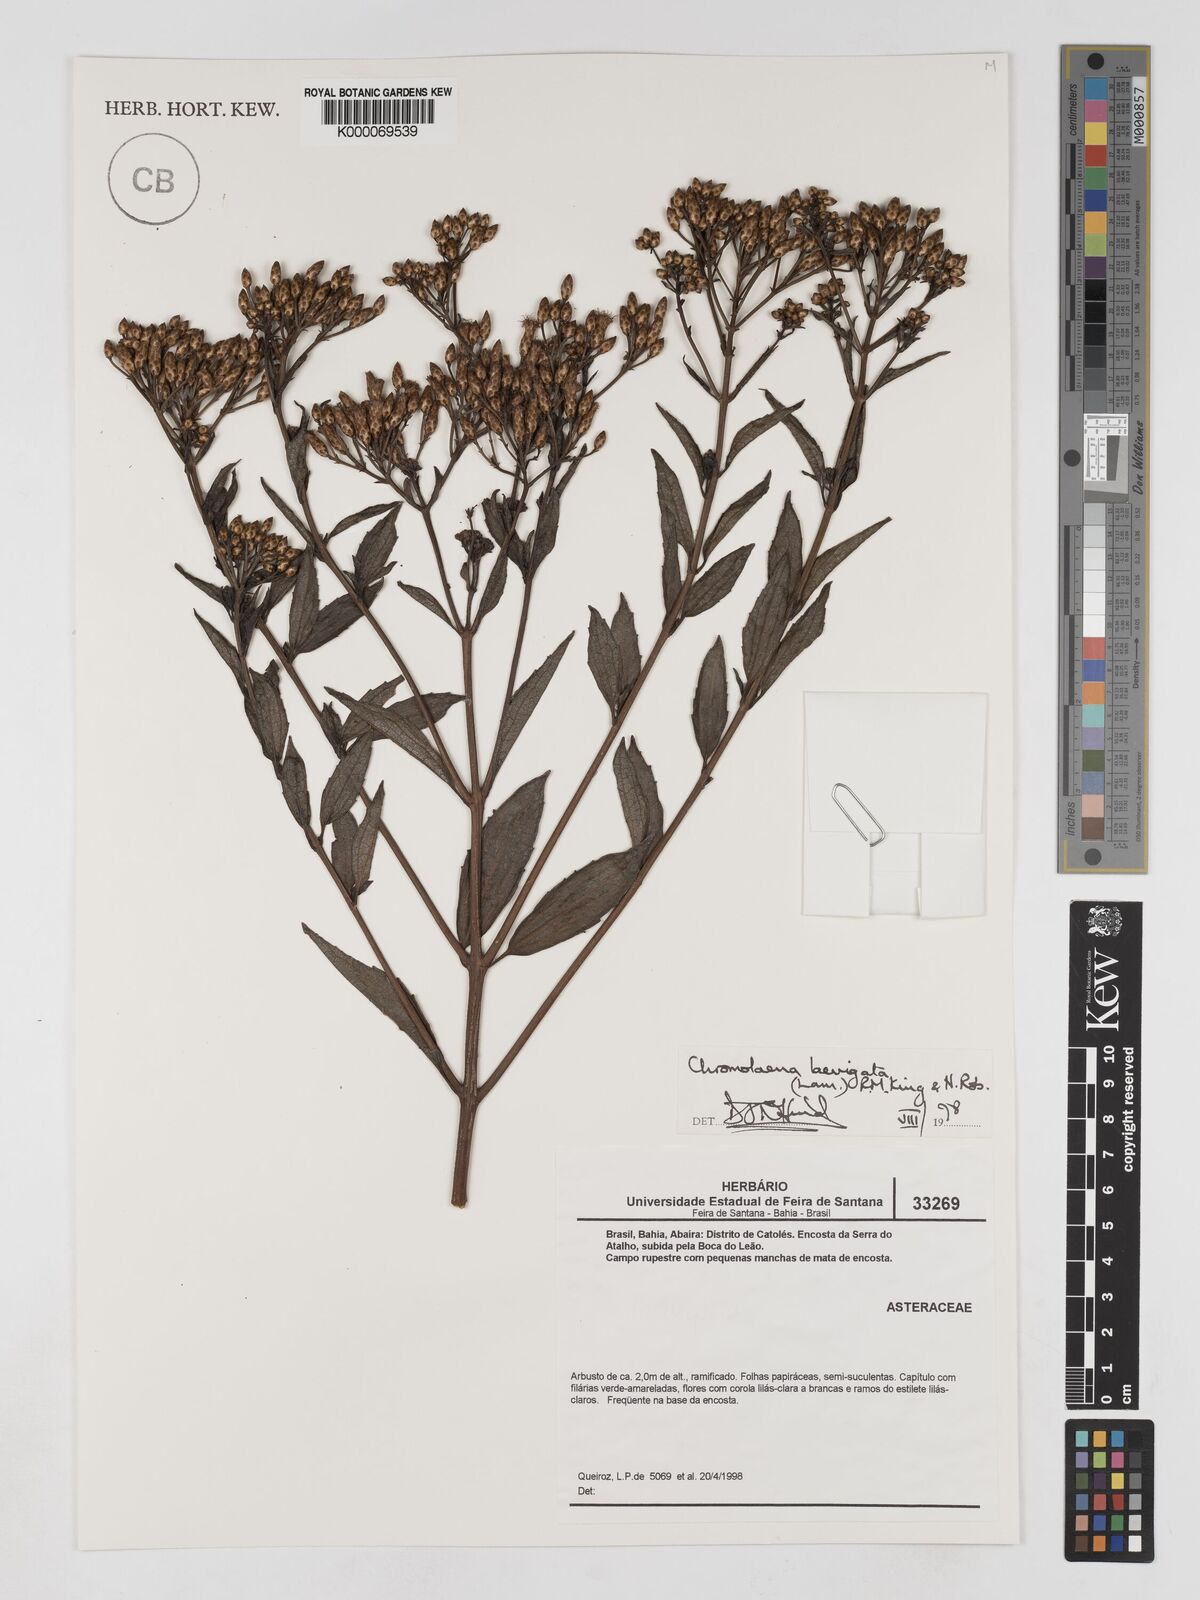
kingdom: Plantae
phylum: Tracheophyta
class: Magnoliopsida
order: Asterales
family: Asteraceae
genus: Chromolaena
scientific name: Chromolaena laevigata
